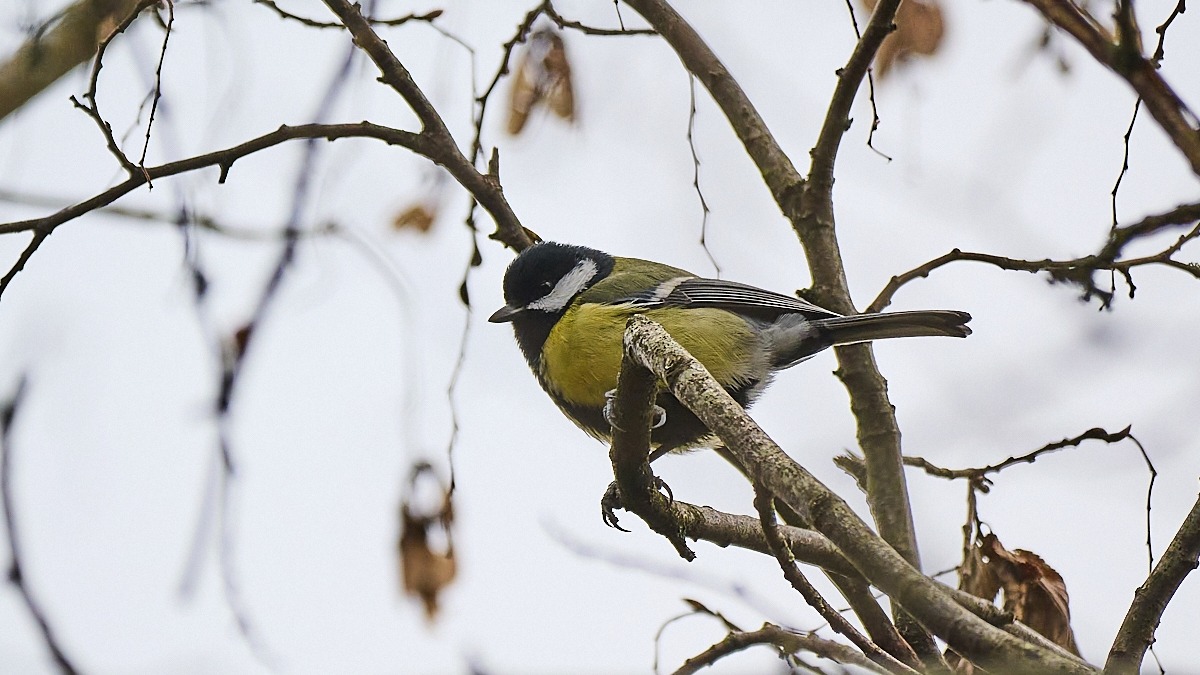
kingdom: Animalia
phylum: Chordata
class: Aves
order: Passeriformes
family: Paridae
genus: Parus
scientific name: Parus major
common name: Musvit
